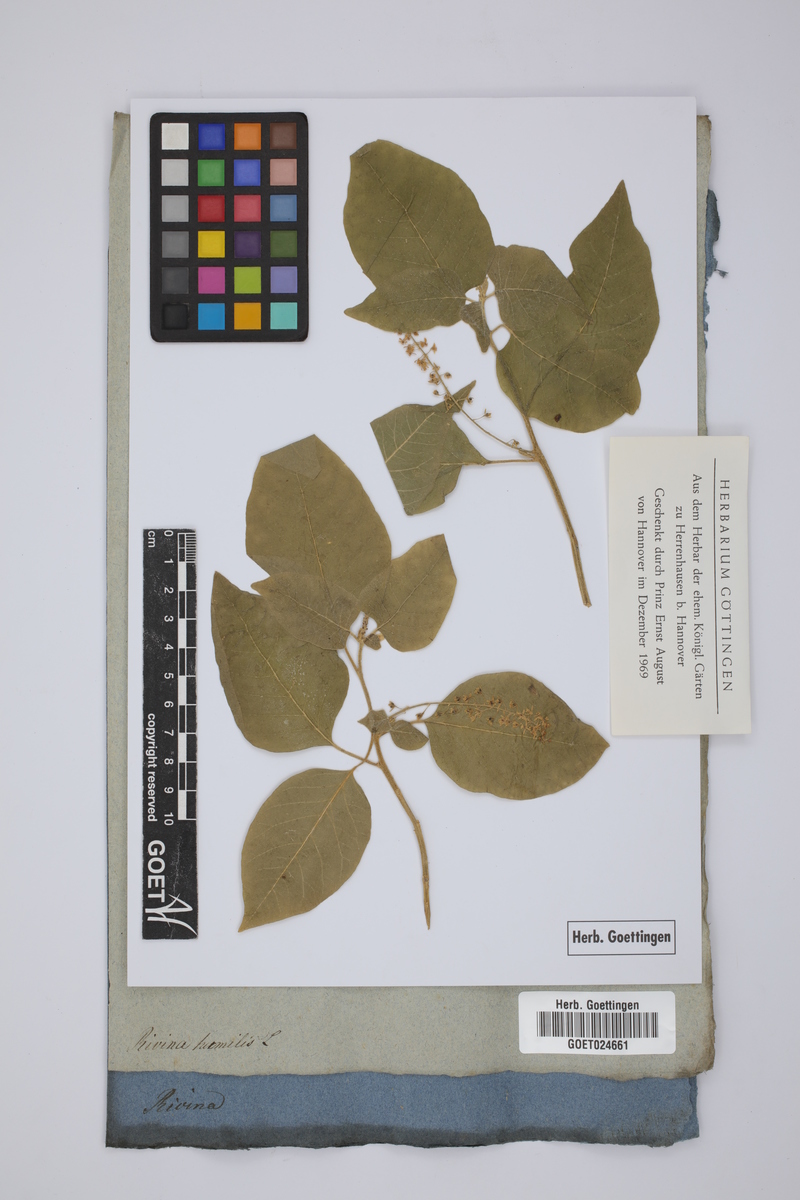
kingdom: Plantae
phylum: Tracheophyta
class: Magnoliopsida
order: Caryophyllales
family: Phytolaccaceae
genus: Rivina
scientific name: Rivina humilis
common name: Rougeplant
